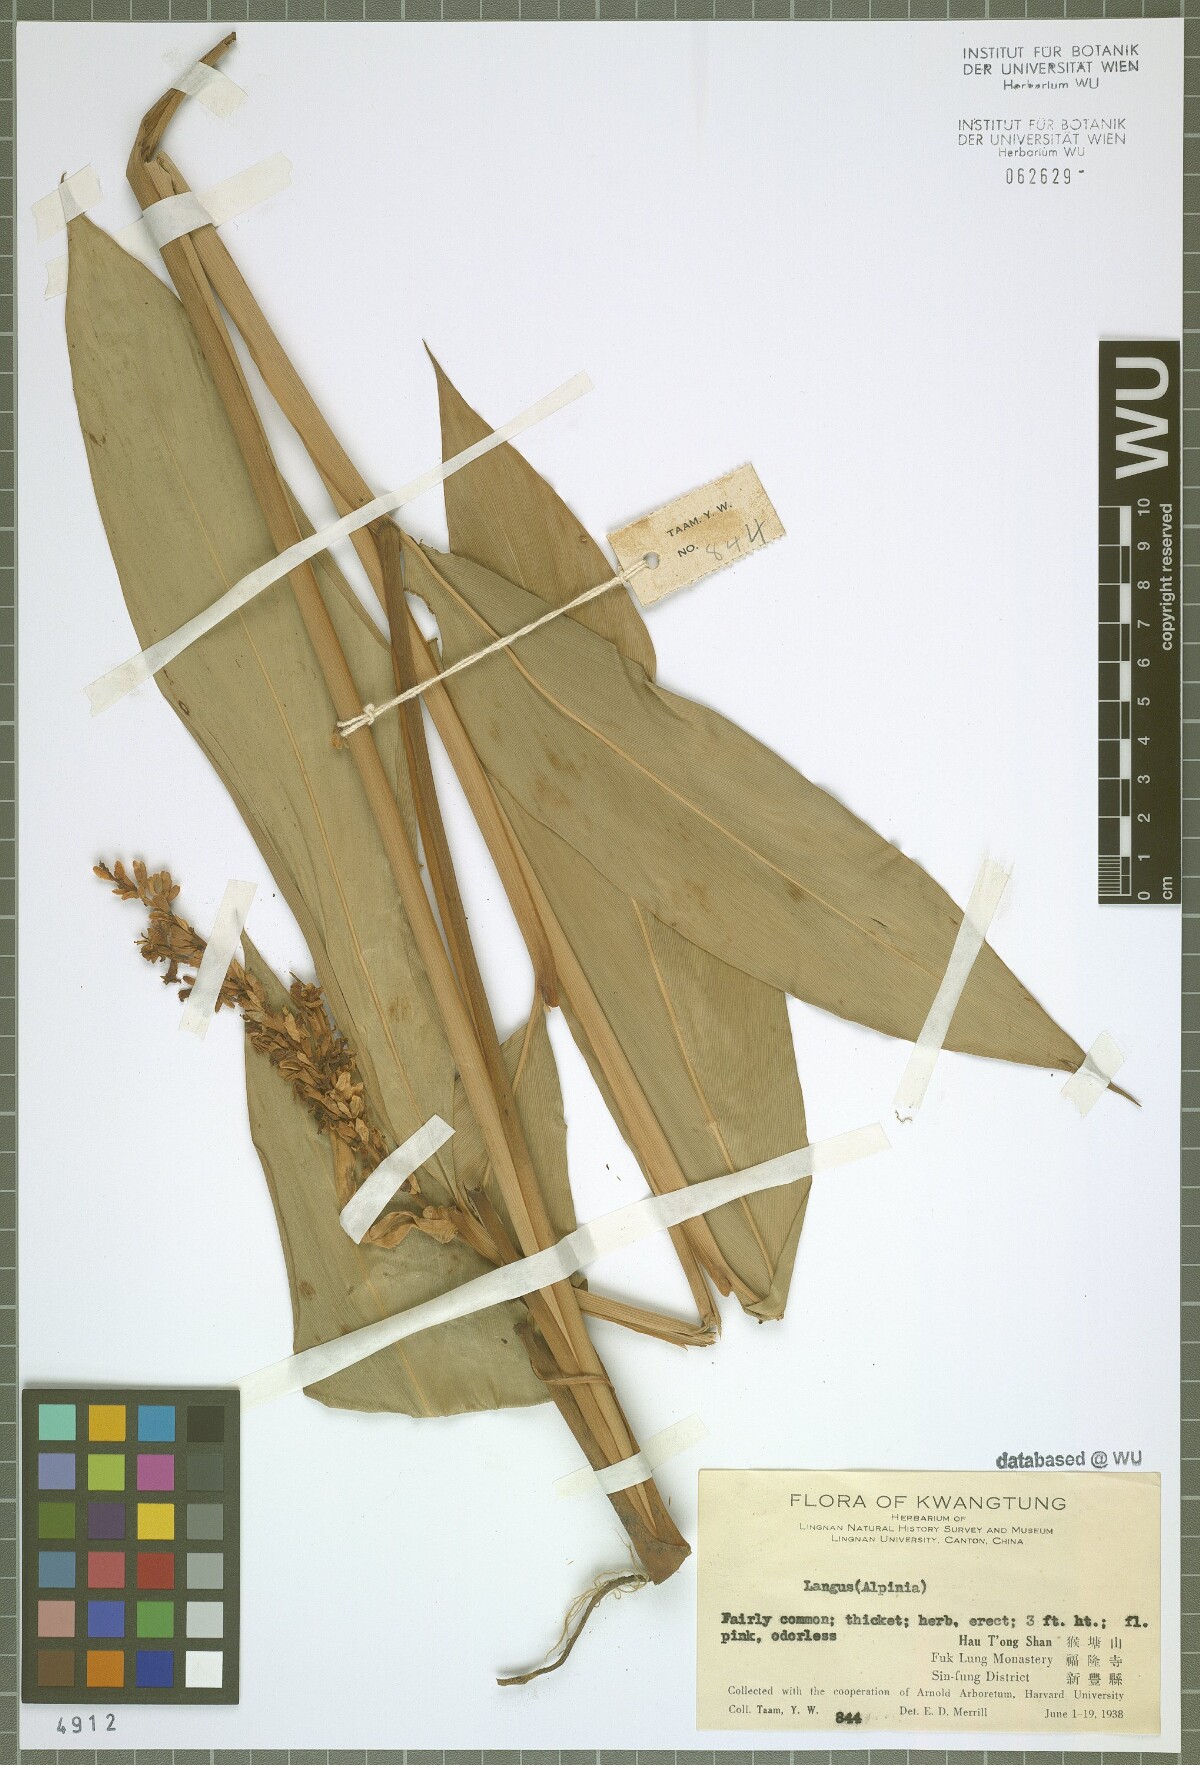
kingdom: Plantae
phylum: Tracheophyta
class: Liliopsida
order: Zingiberales
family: Zingiberaceae
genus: Alpinia
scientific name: Alpinia
